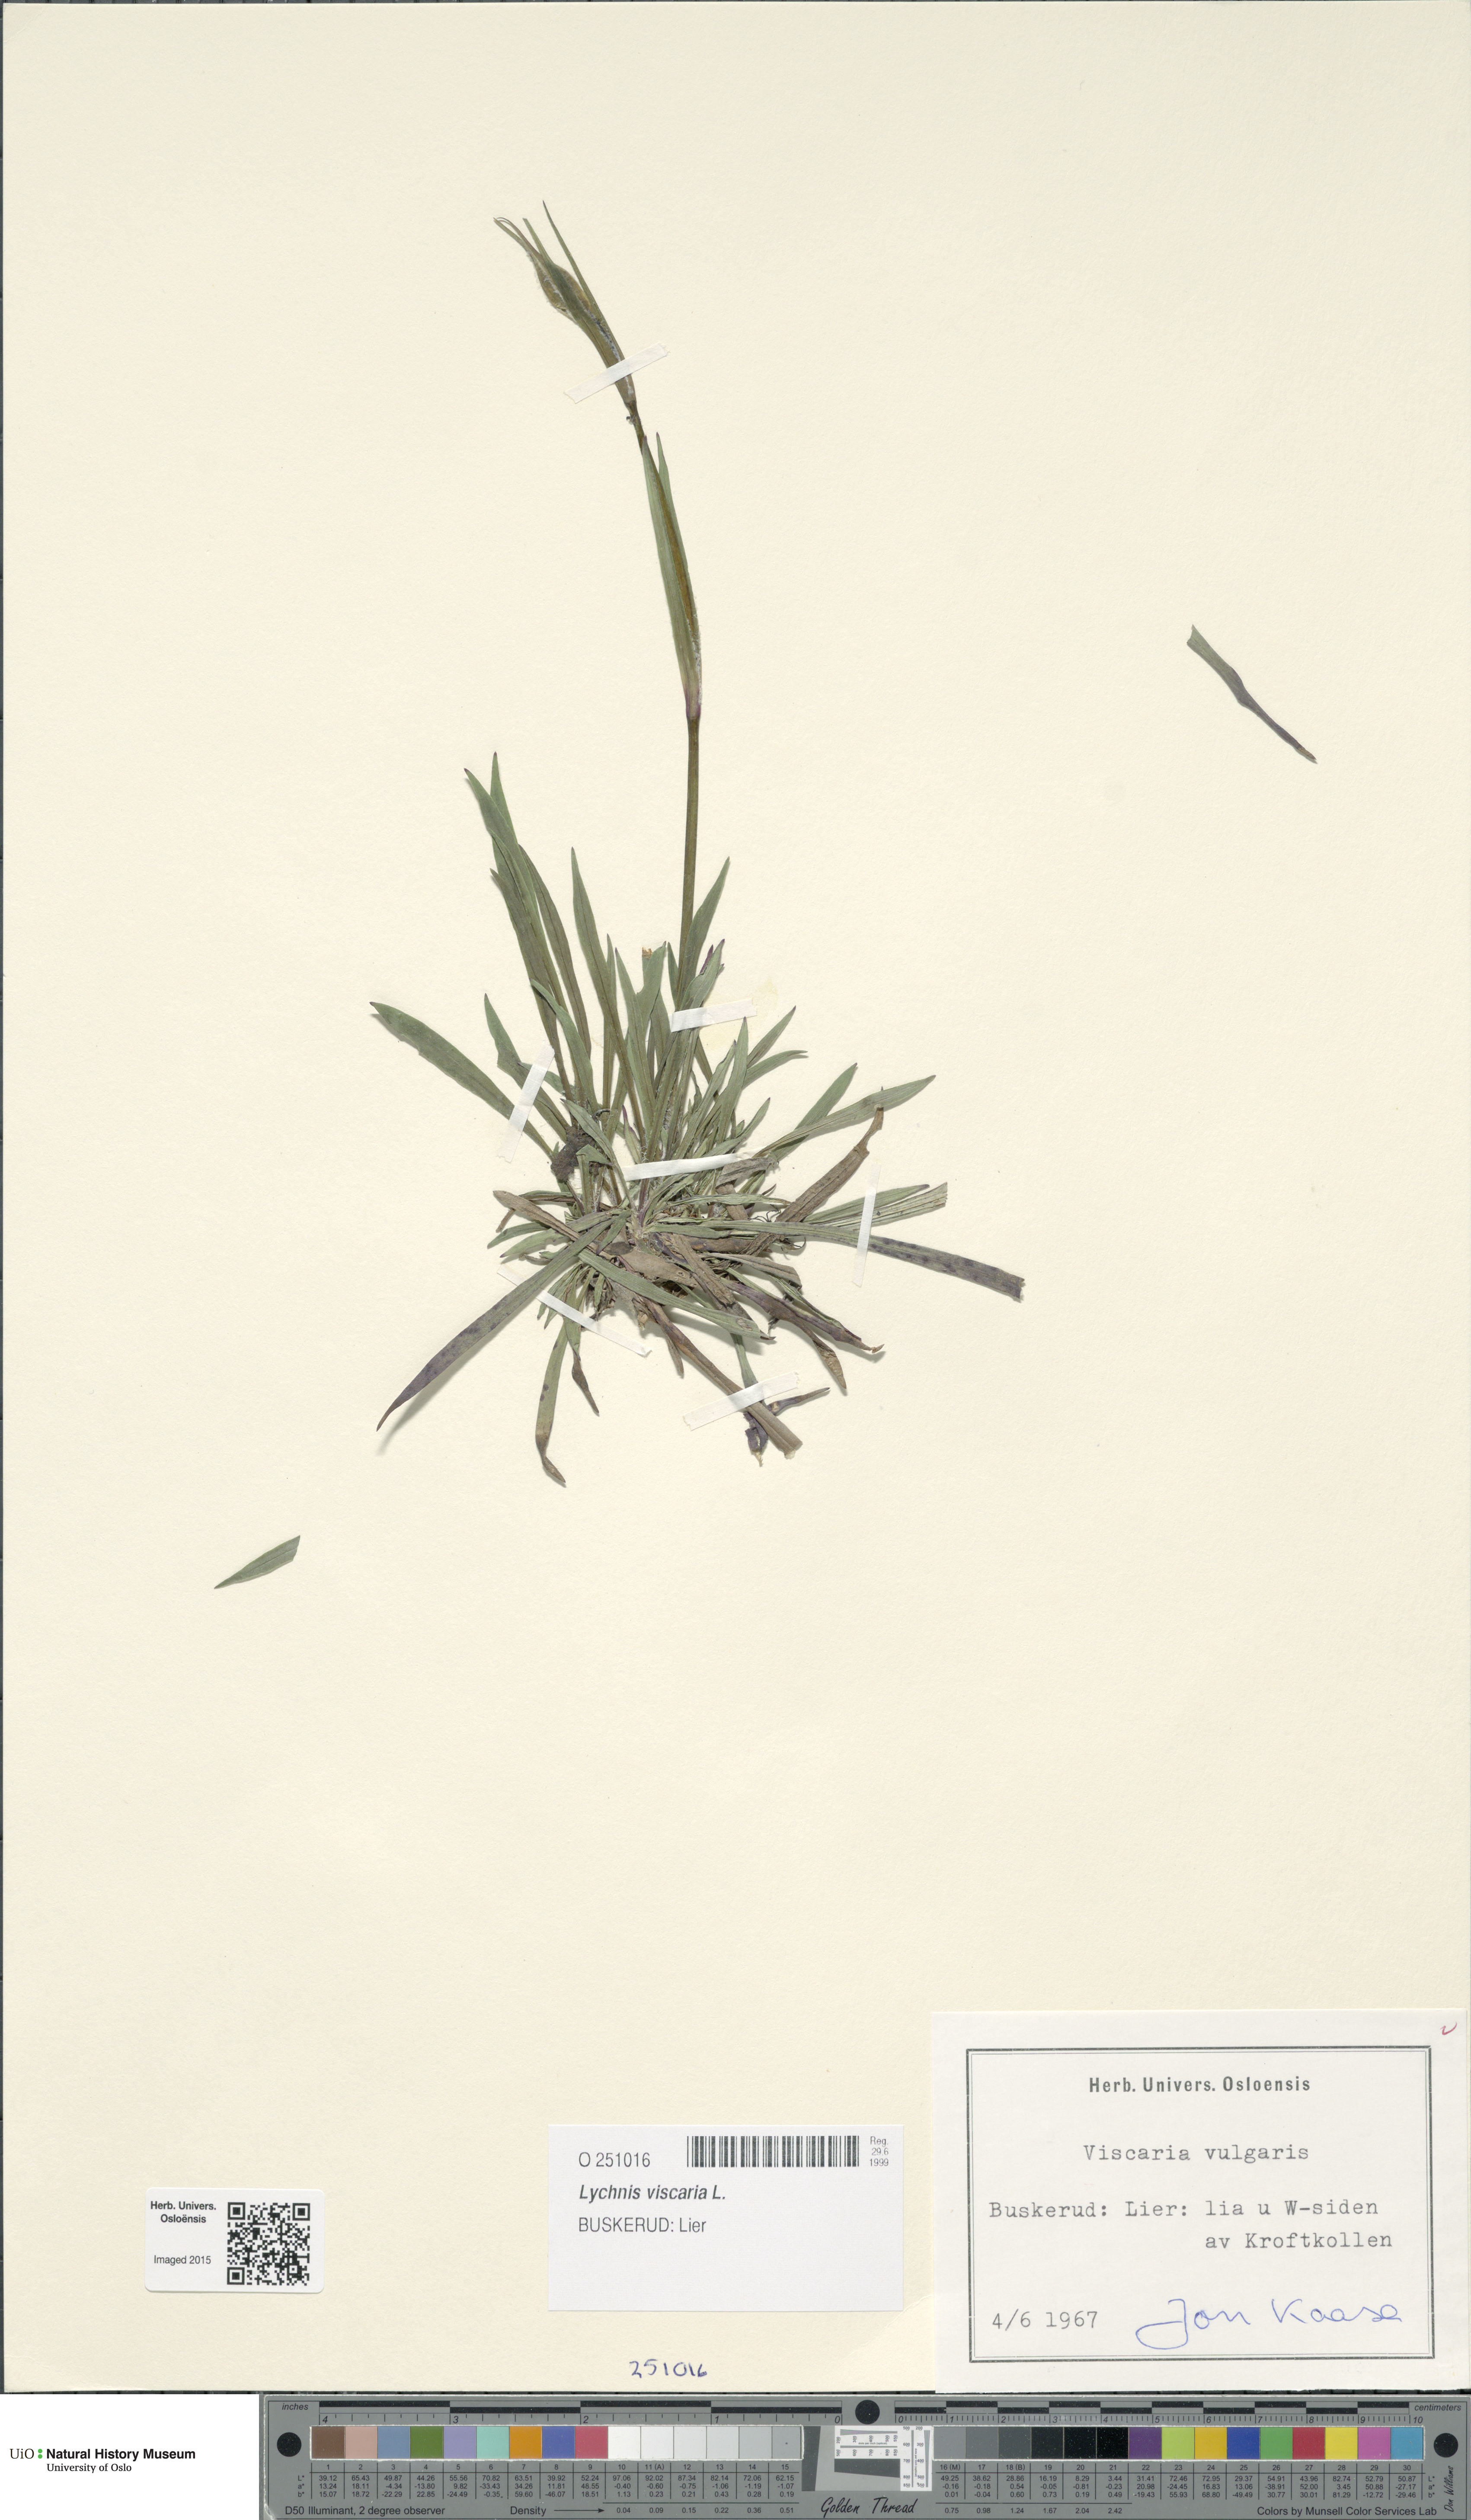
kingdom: Plantae
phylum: Tracheophyta
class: Magnoliopsida
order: Caryophyllales
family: Caryophyllaceae
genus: Viscaria
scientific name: Viscaria vulgaris
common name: Clammy campion
